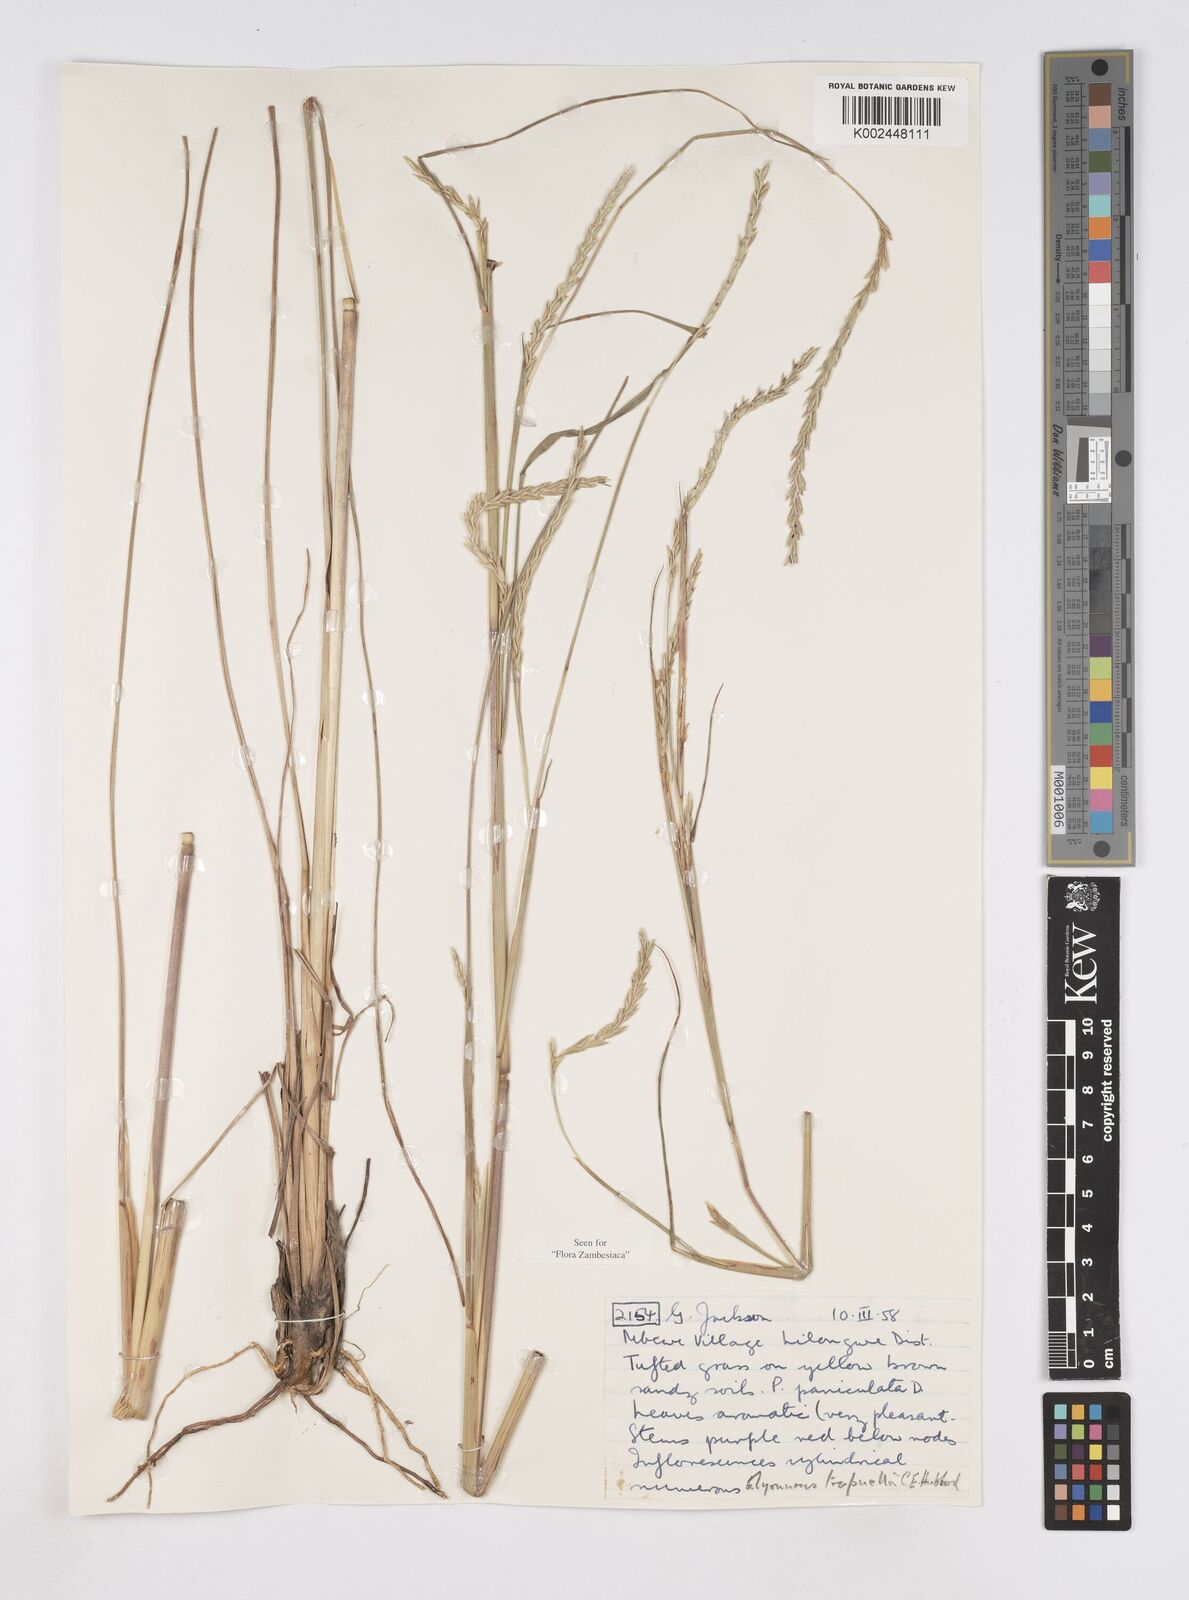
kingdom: Plantae
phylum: Tracheophyta
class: Liliopsida
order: Poales
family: Poaceae
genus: Elionurus
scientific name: Elionurus
